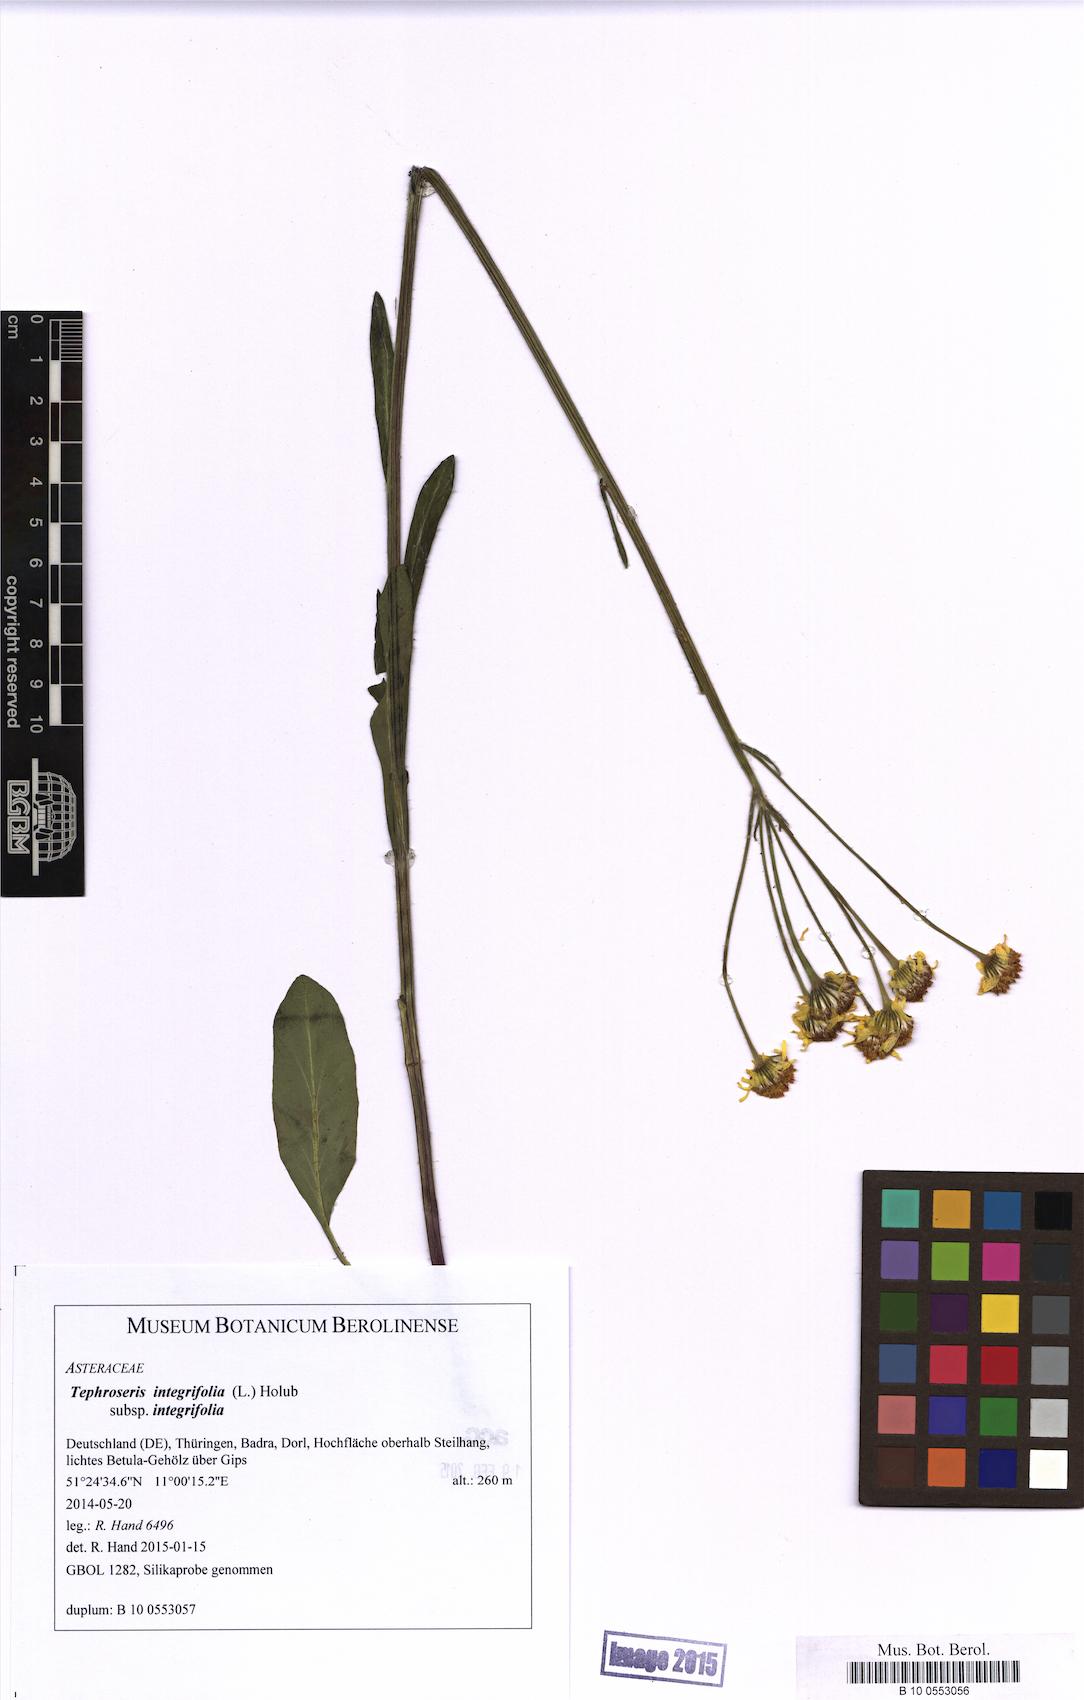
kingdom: Plantae
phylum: Tracheophyta
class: Magnoliopsida
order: Asterales
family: Asteraceae
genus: Tephroseris
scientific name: Tephroseris integrifolia
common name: Field fleawort
